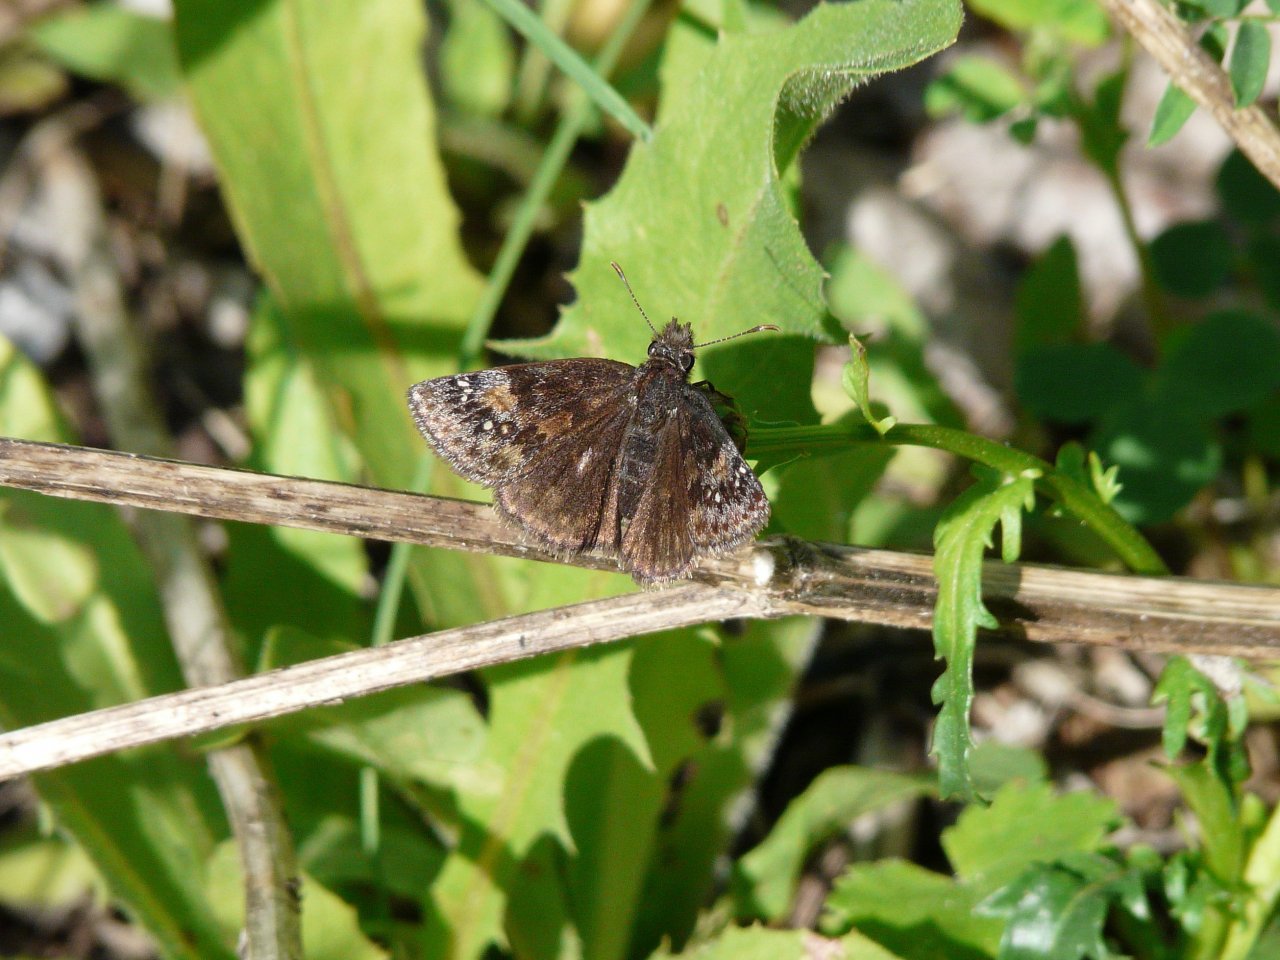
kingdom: Animalia
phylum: Arthropoda
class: Insecta
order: Lepidoptera
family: Hesperiidae
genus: Erynnis
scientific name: Erynnis
